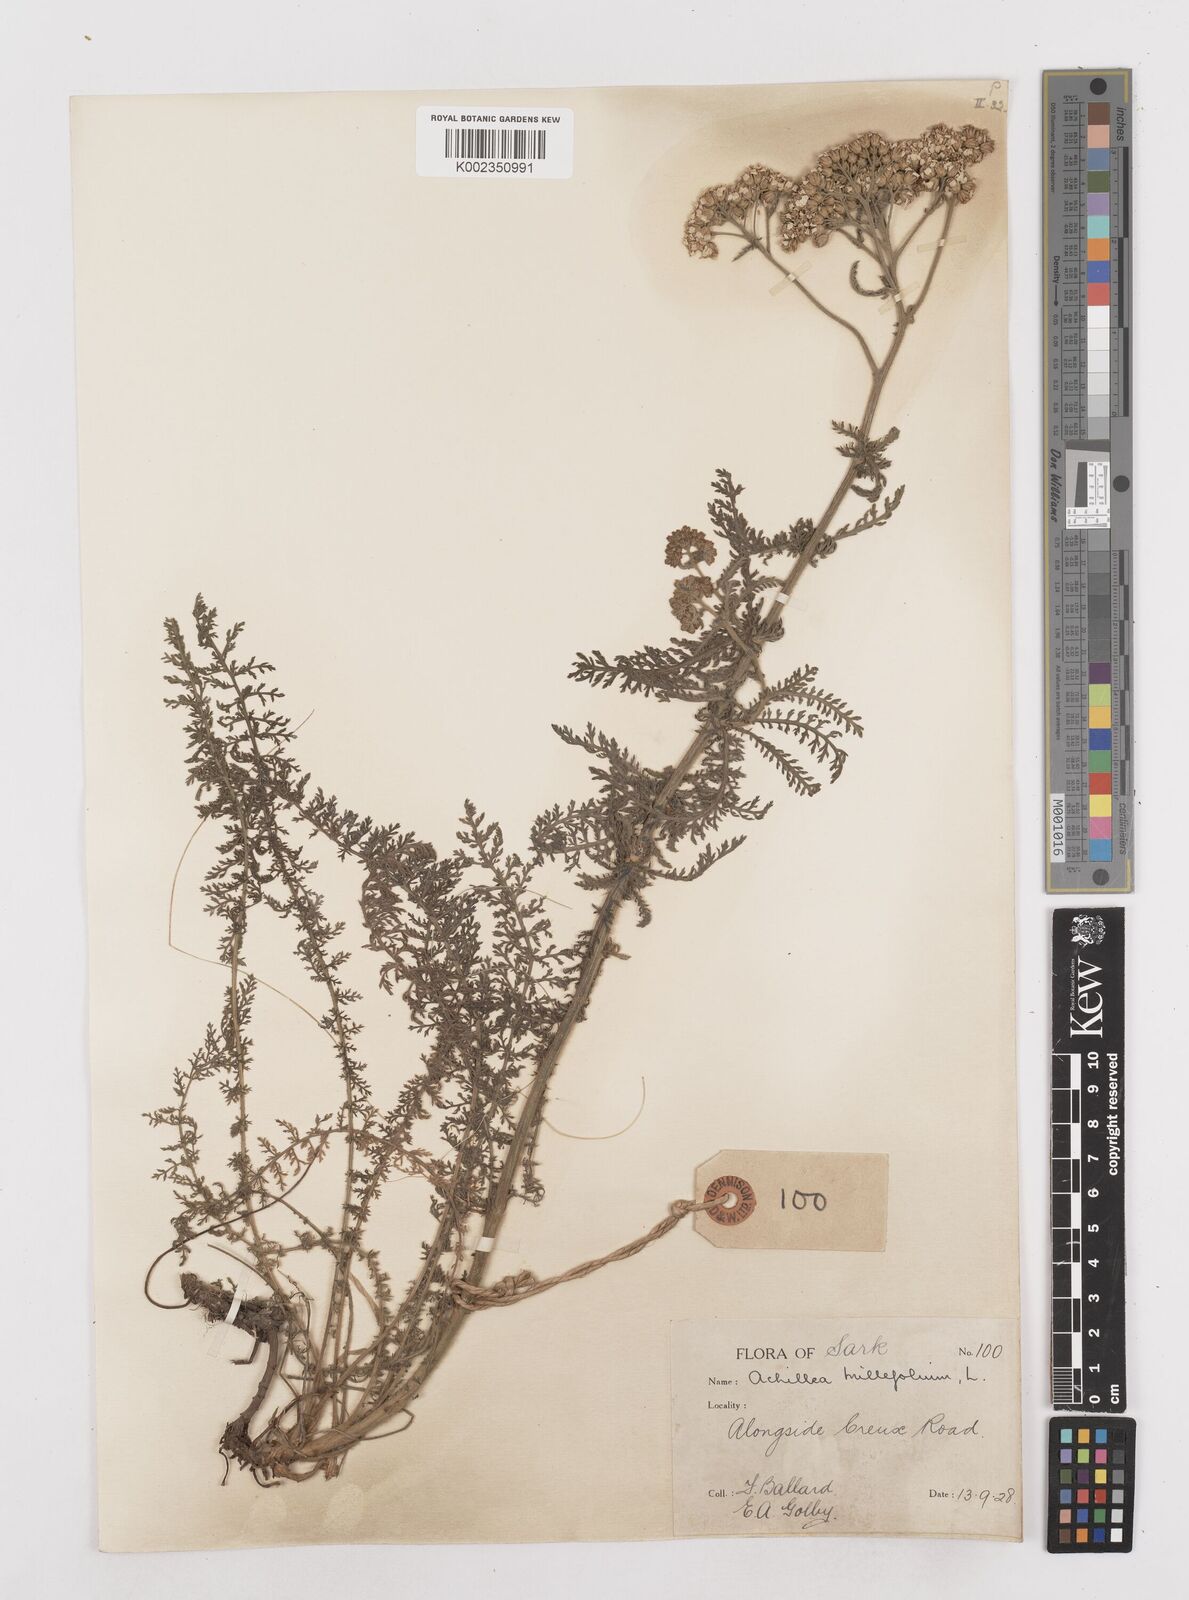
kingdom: Plantae
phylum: Tracheophyta
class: Magnoliopsida
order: Asterales
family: Asteraceae
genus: Achillea
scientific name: Achillea millefolium
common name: Yarrow
